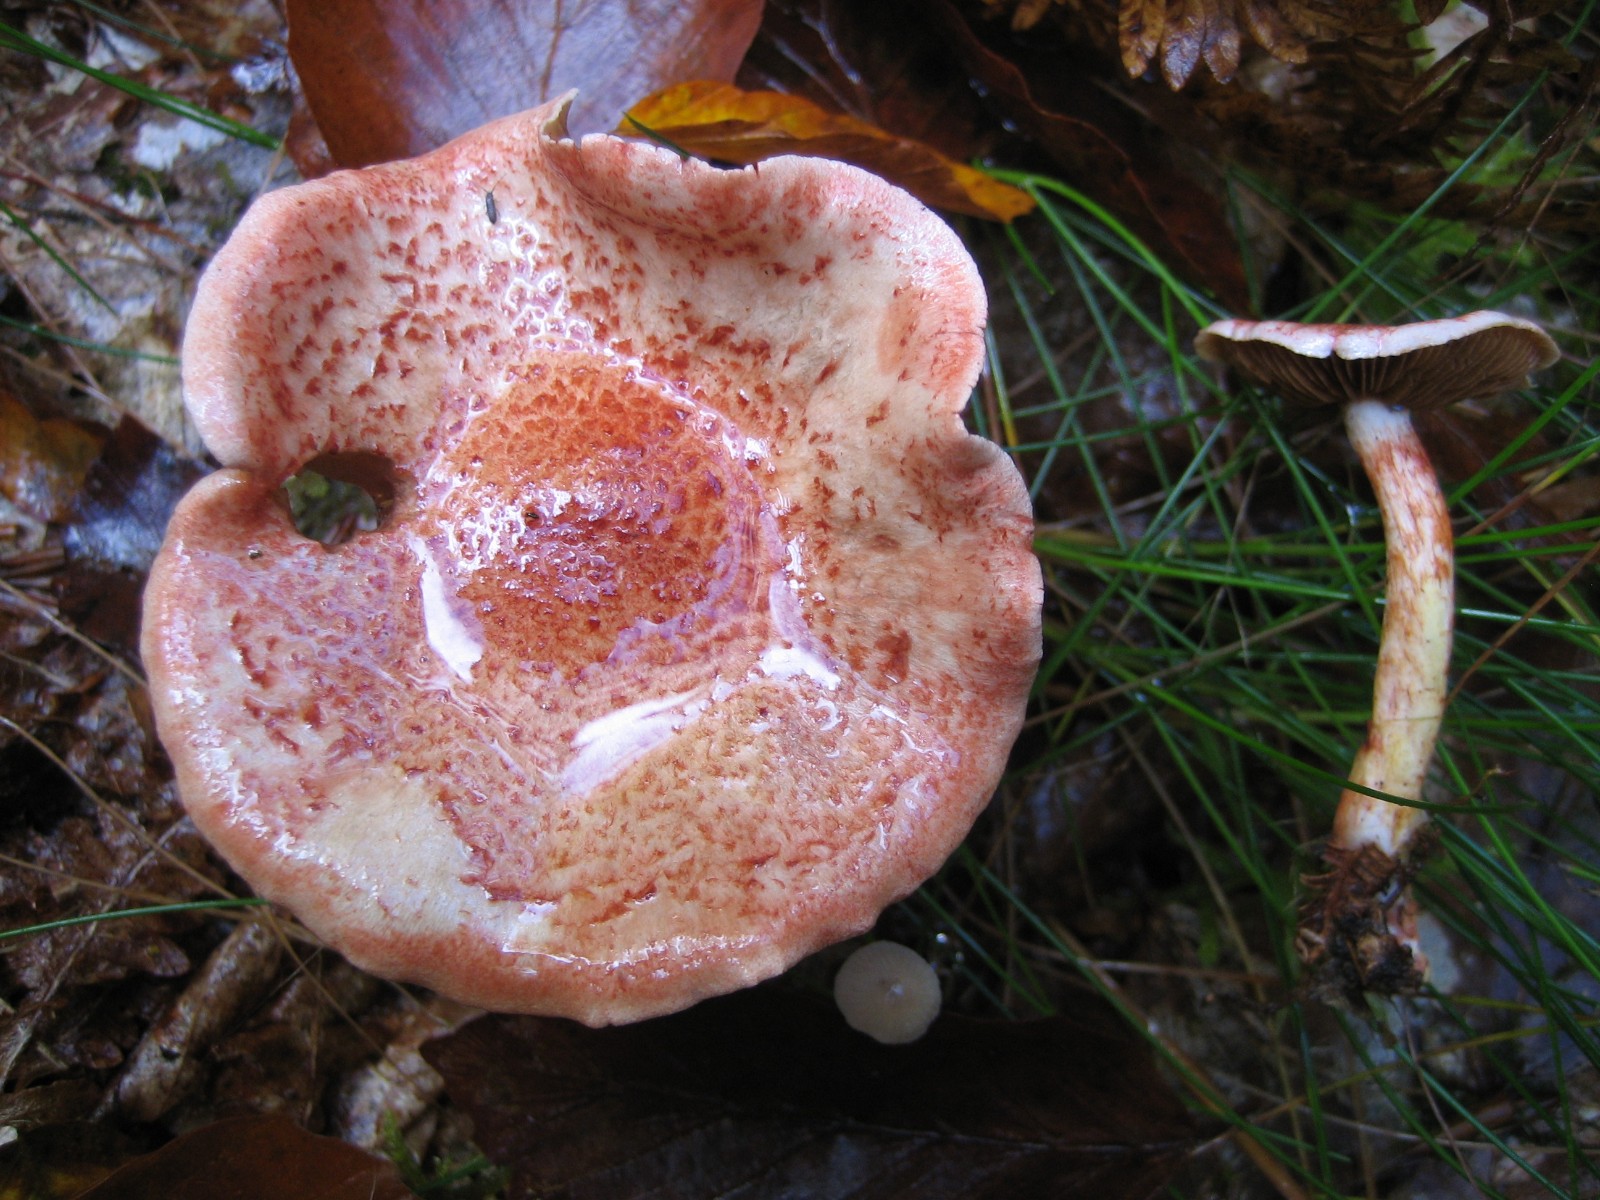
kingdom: Fungi
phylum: Basidiomycota
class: Agaricomycetes
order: Agaricales
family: Cortinariaceae
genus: Cortinarius
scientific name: Cortinarius bolaris
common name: cinnoberskællet slørhat
